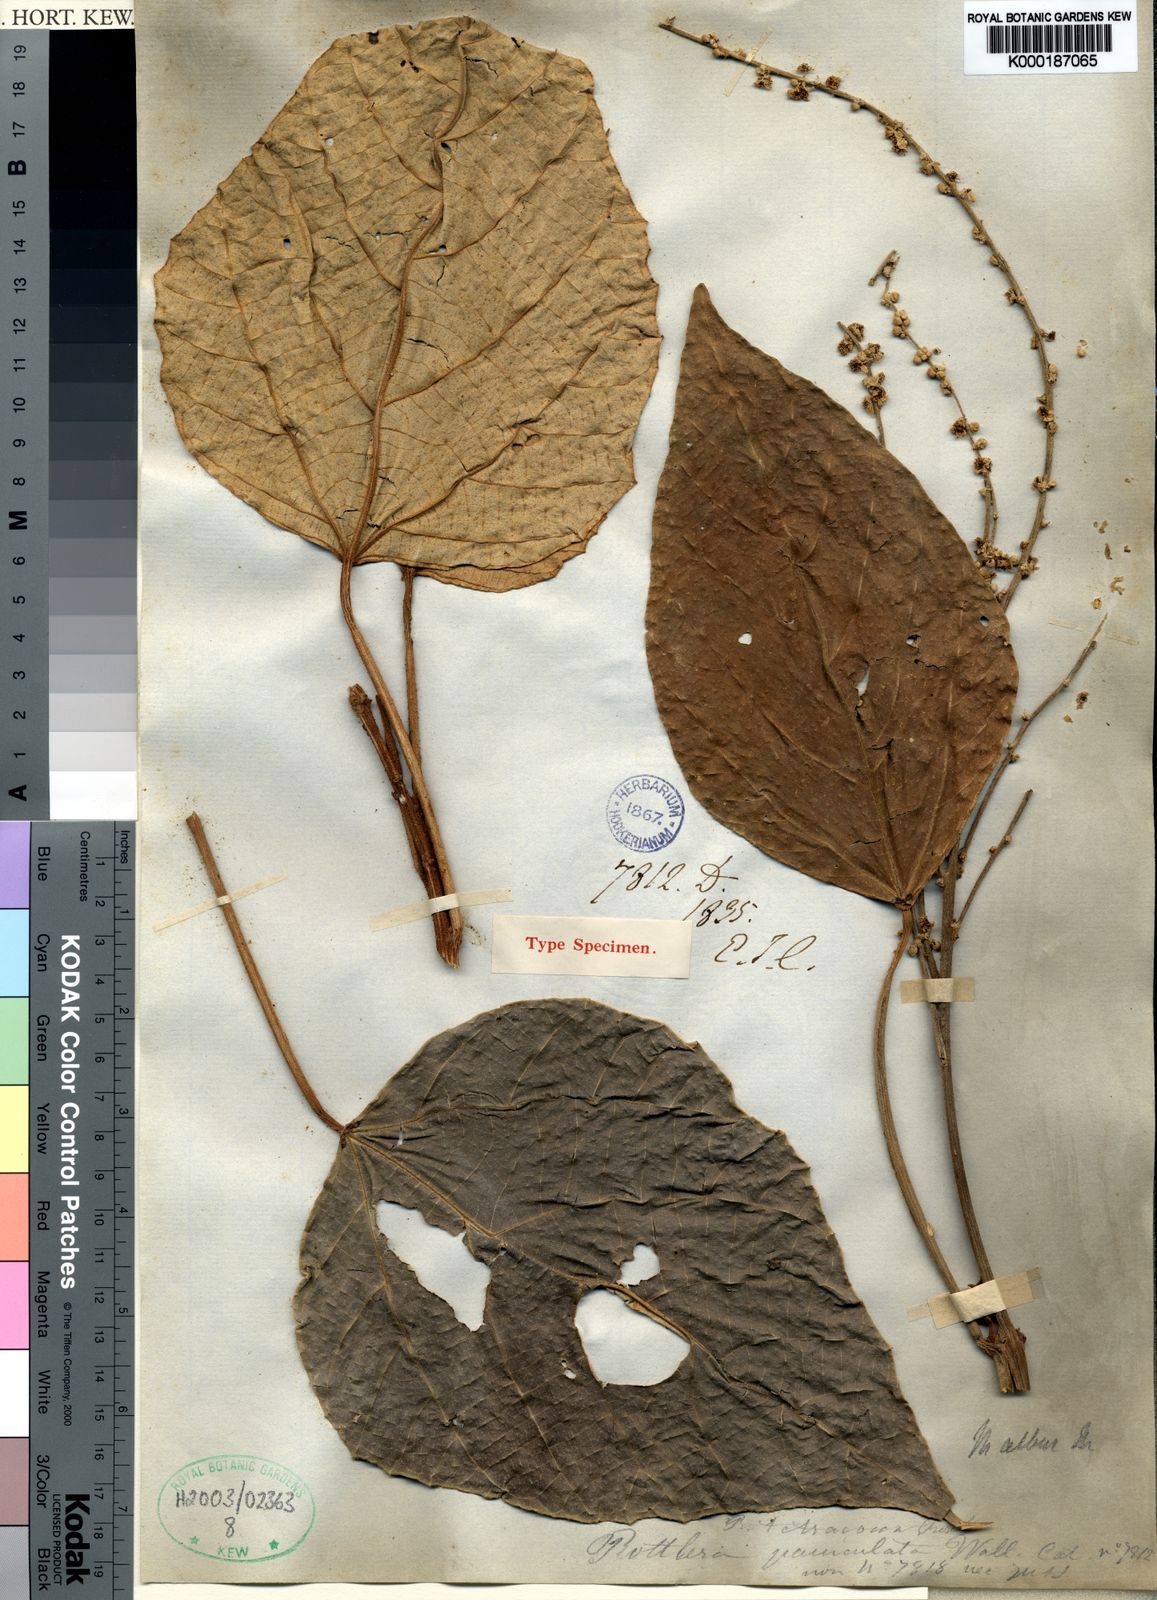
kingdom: Plantae
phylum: Tracheophyta
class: Magnoliopsida
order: Malpighiales
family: Euphorbiaceae
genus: Mallotus
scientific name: Mallotus tetracoccus
